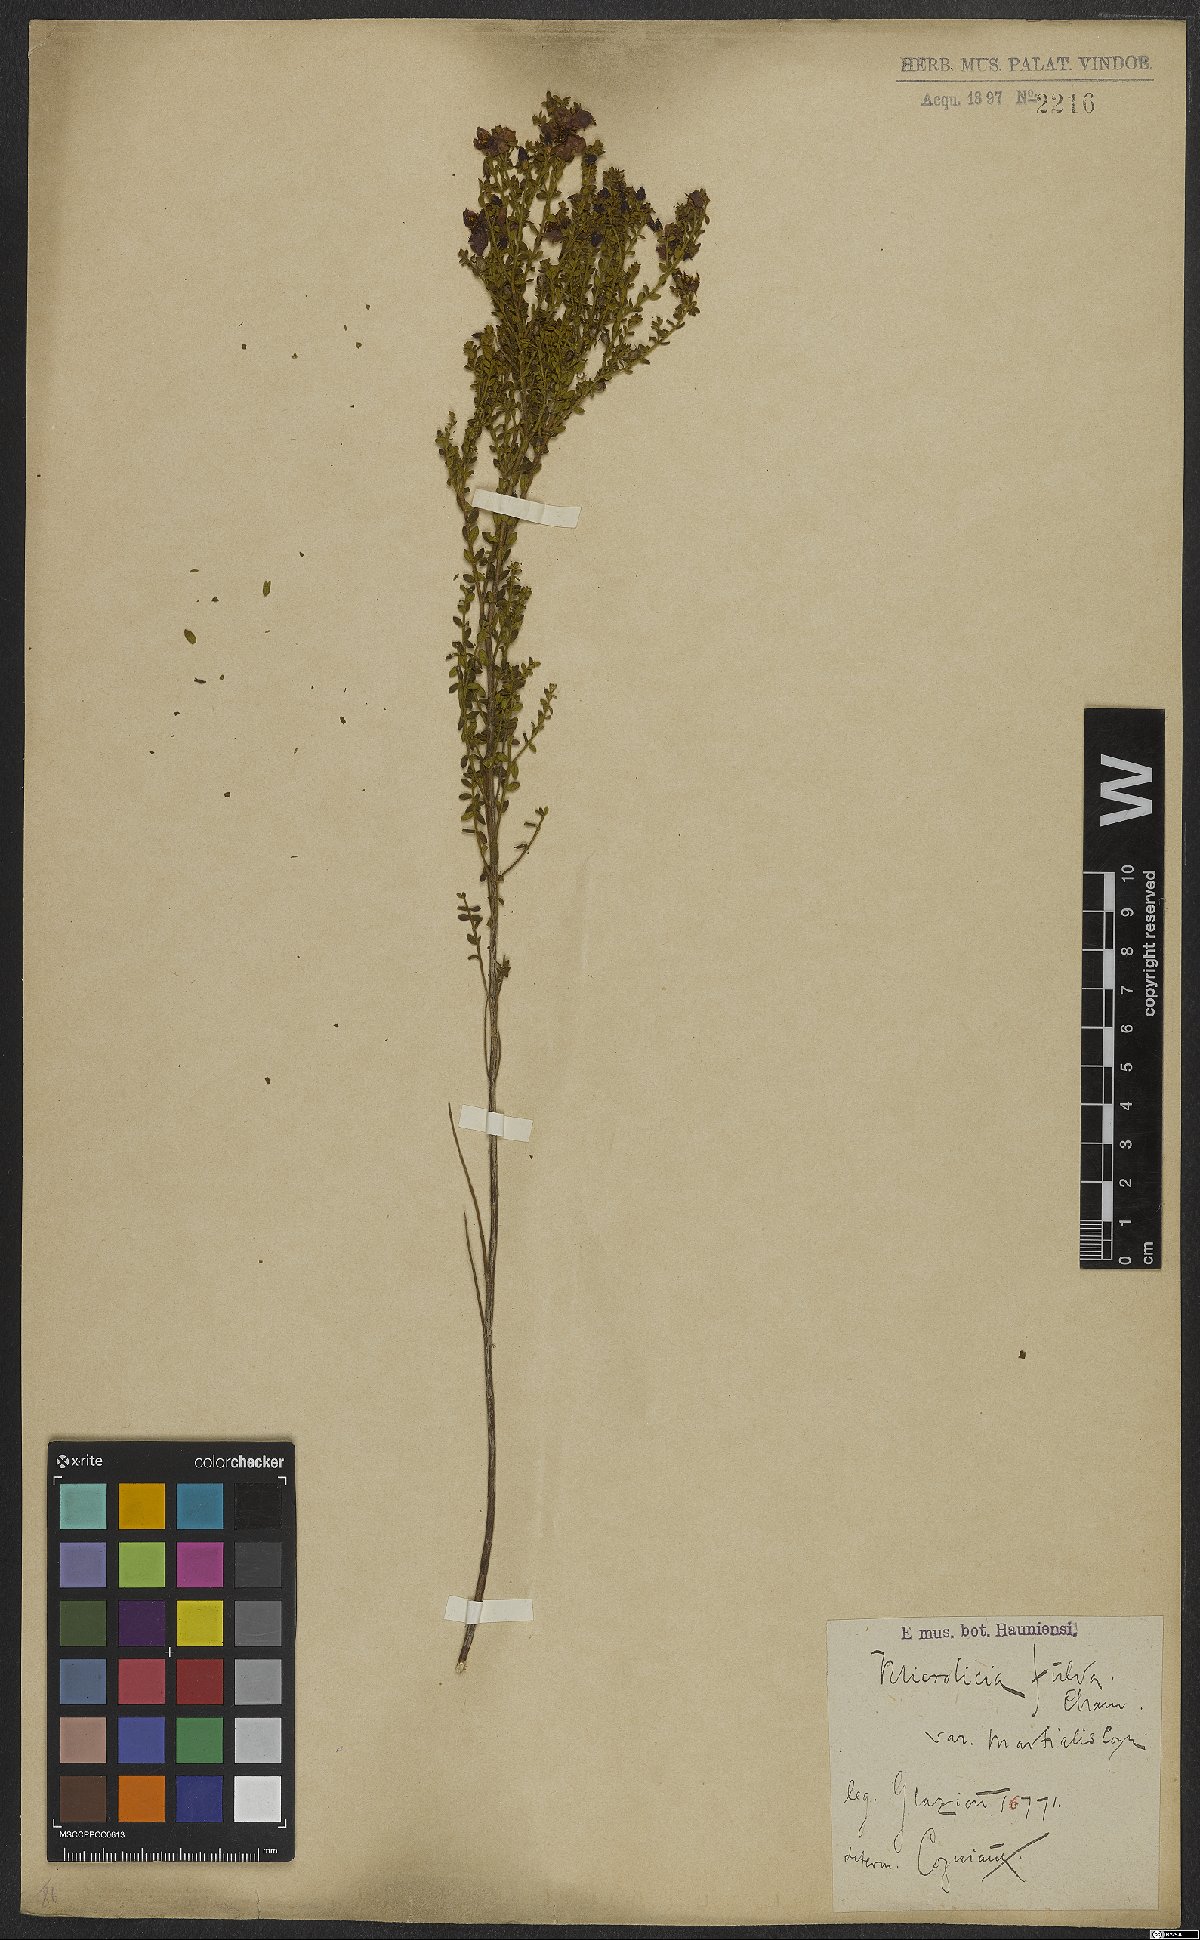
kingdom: Plantae
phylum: Tracheophyta
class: Magnoliopsida
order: Myrtales
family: Melastomataceae
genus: Microlicia
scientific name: Microlicia fulva
